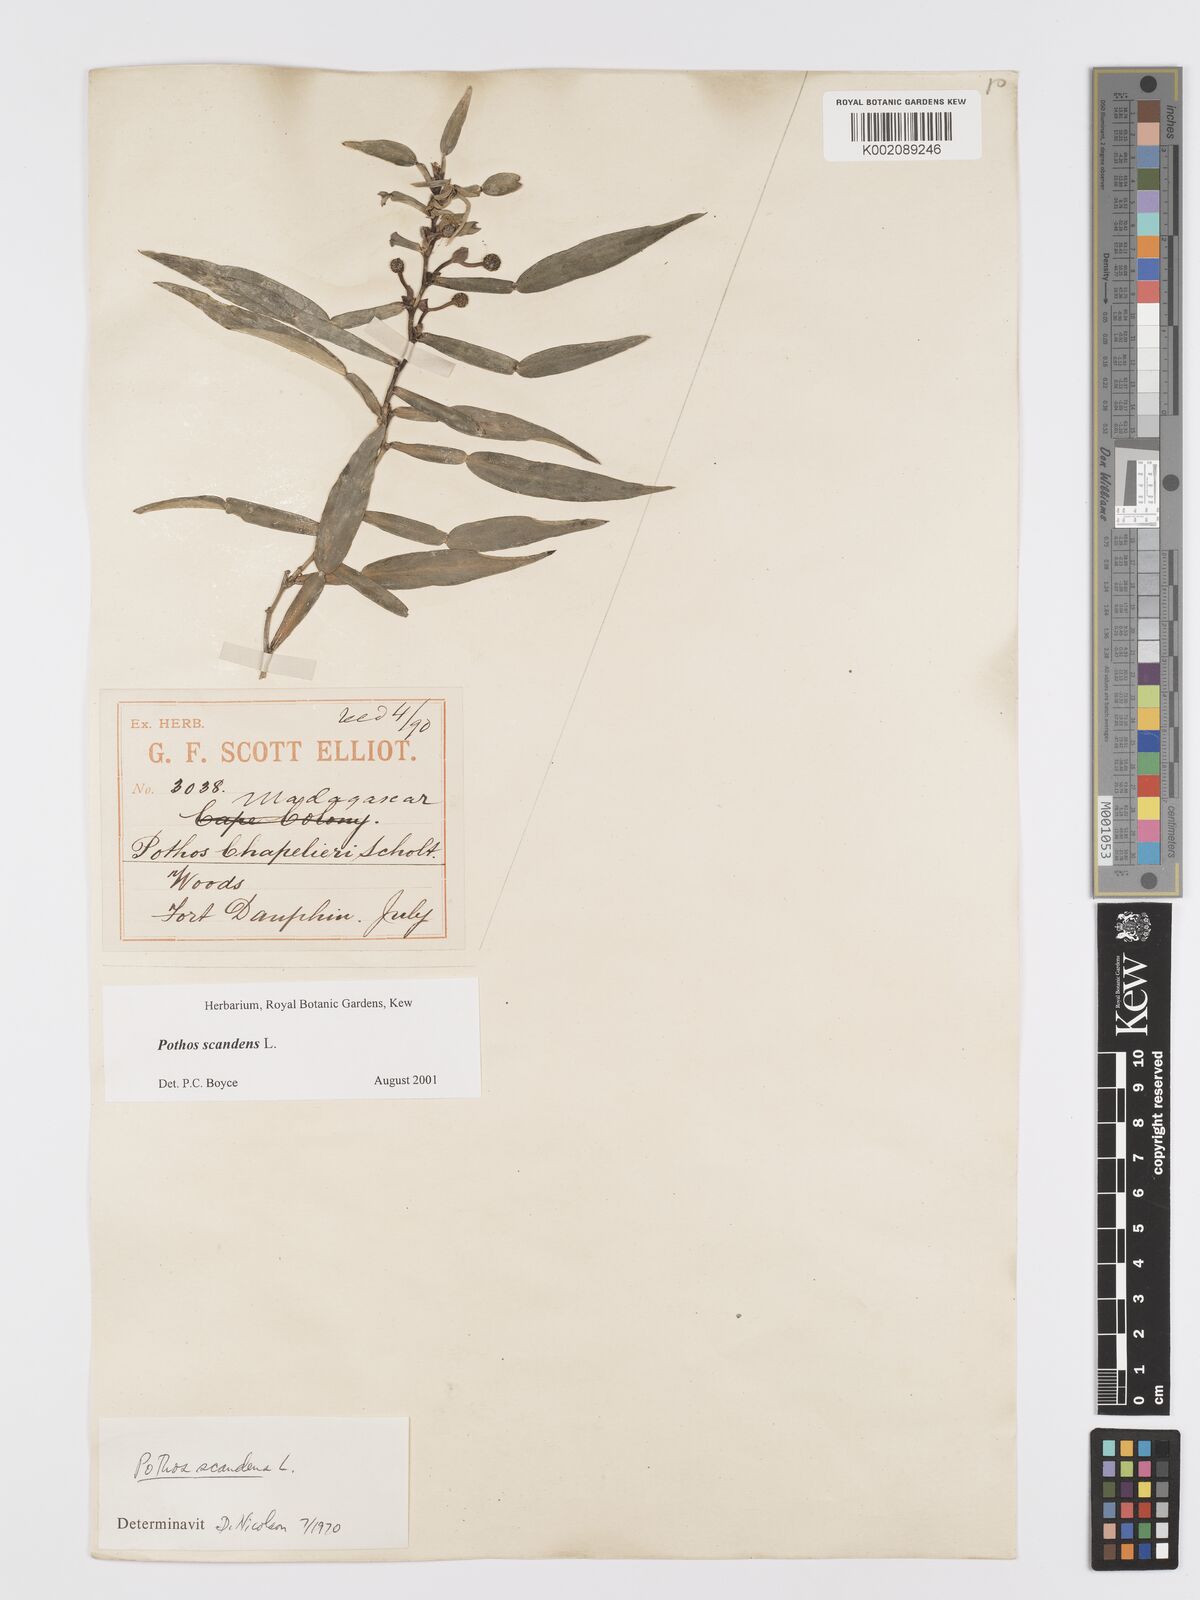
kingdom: Plantae
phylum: Tracheophyta
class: Liliopsida
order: Alismatales
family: Araceae
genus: Pothos
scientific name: Pothos scandens
